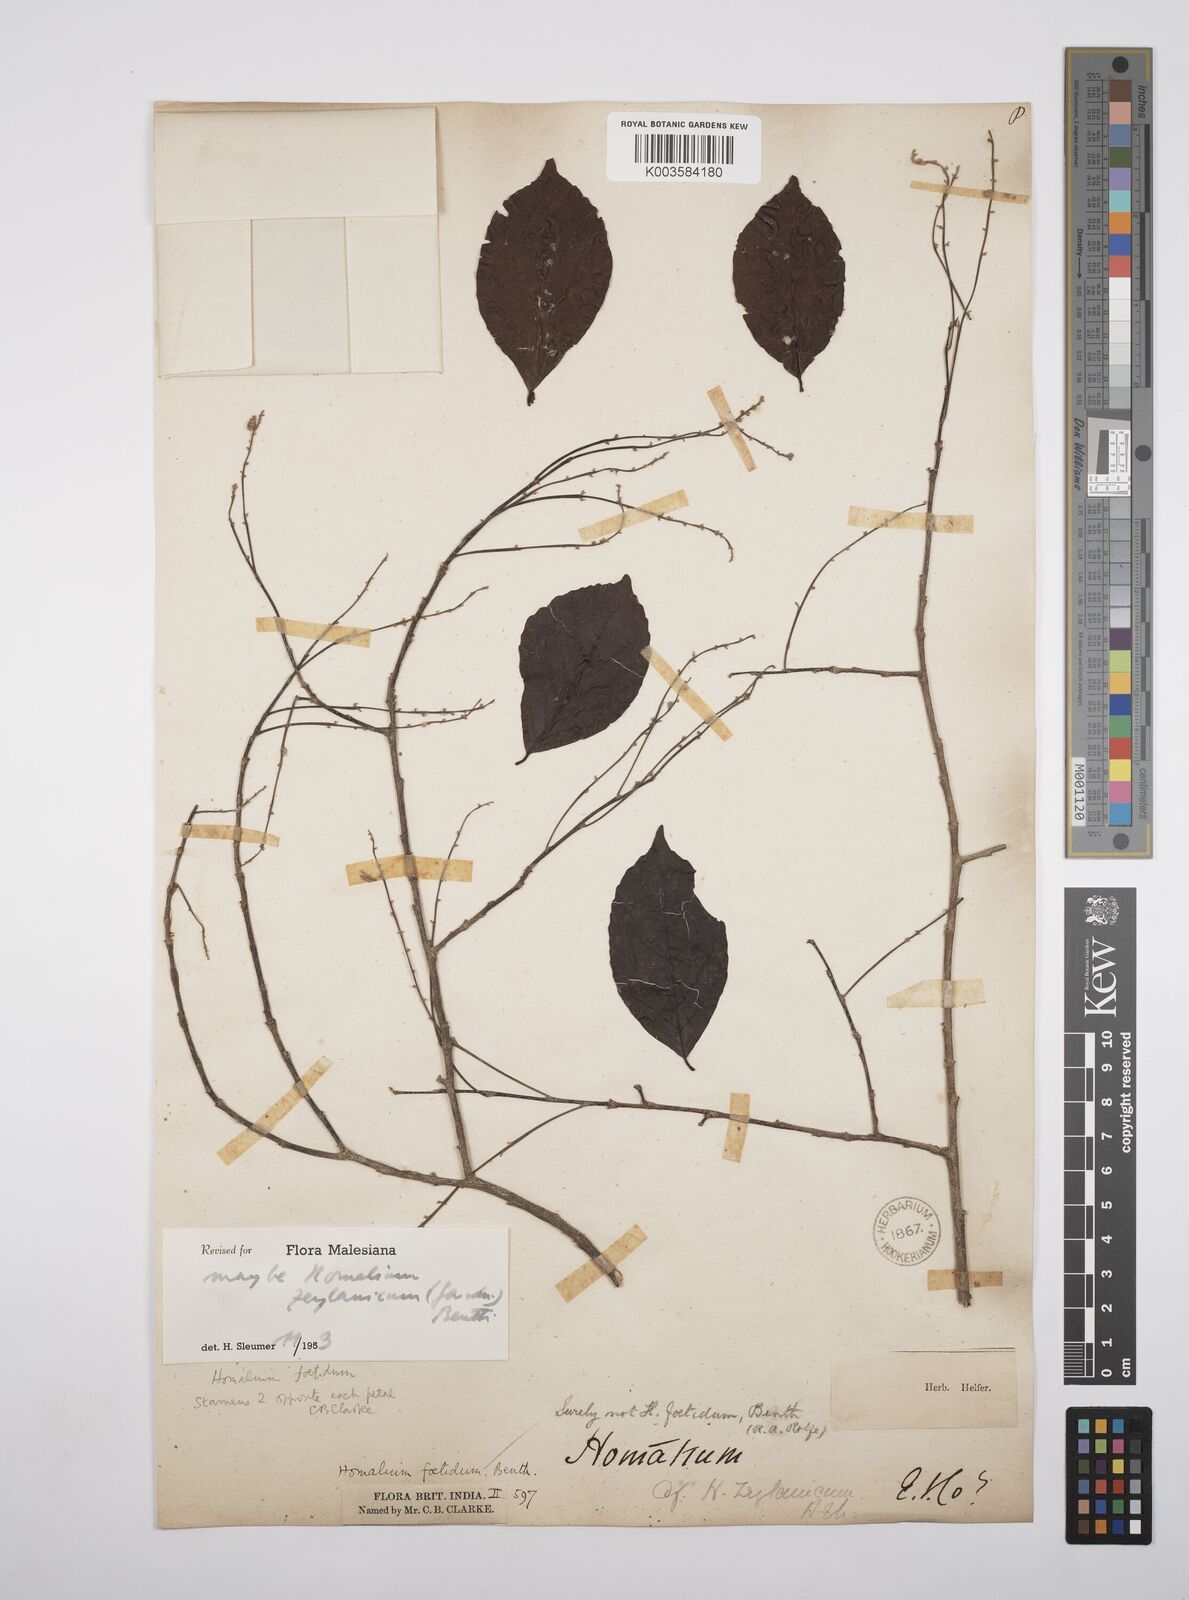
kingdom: Plantae
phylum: Tracheophyta
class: Magnoliopsida
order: Malpighiales
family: Salicaceae
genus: Homalium
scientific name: Homalium foetidum
